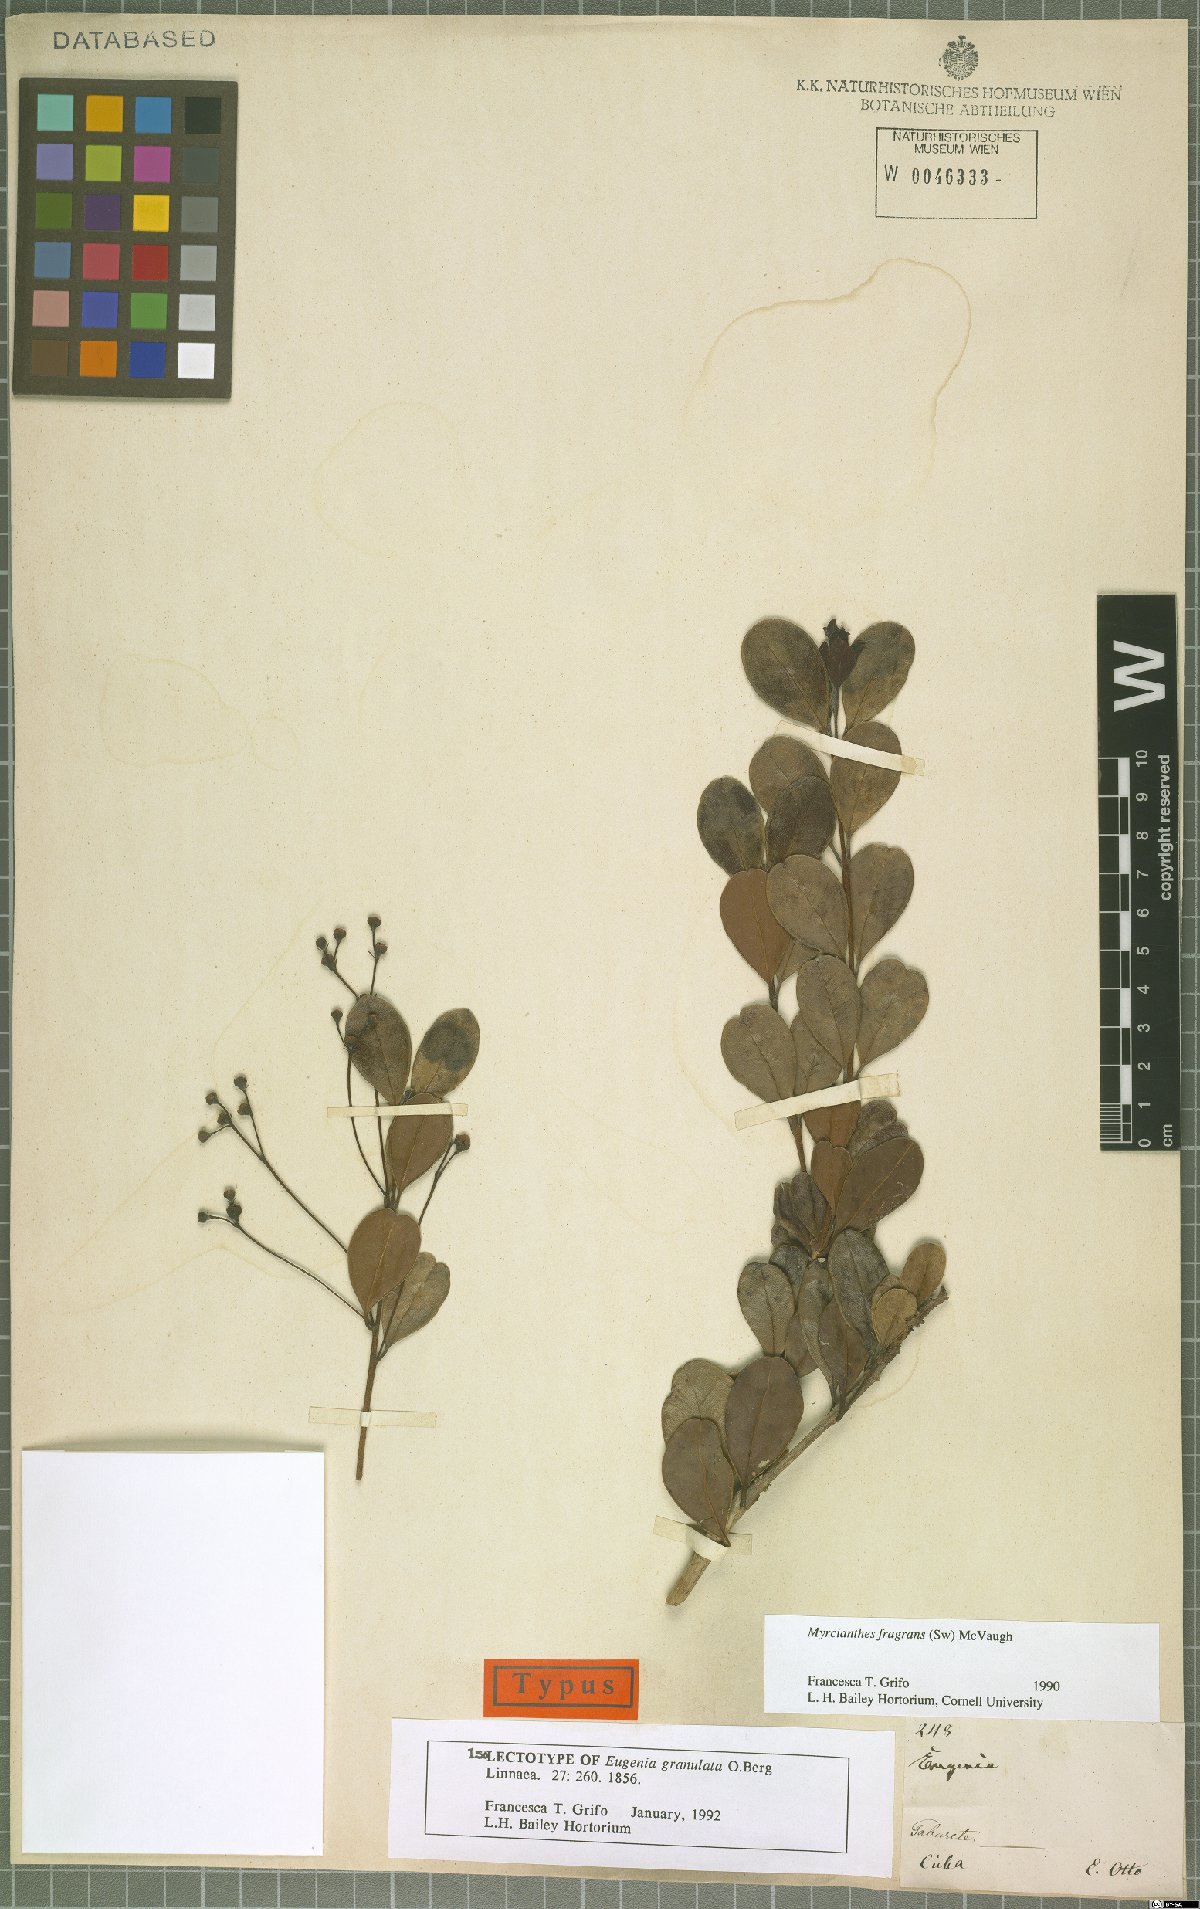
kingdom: Plantae
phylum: Tracheophyta
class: Magnoliopsida
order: Myrtales
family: Myrtaceae
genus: Myrcianthes
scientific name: Myrcianthes fragrans
